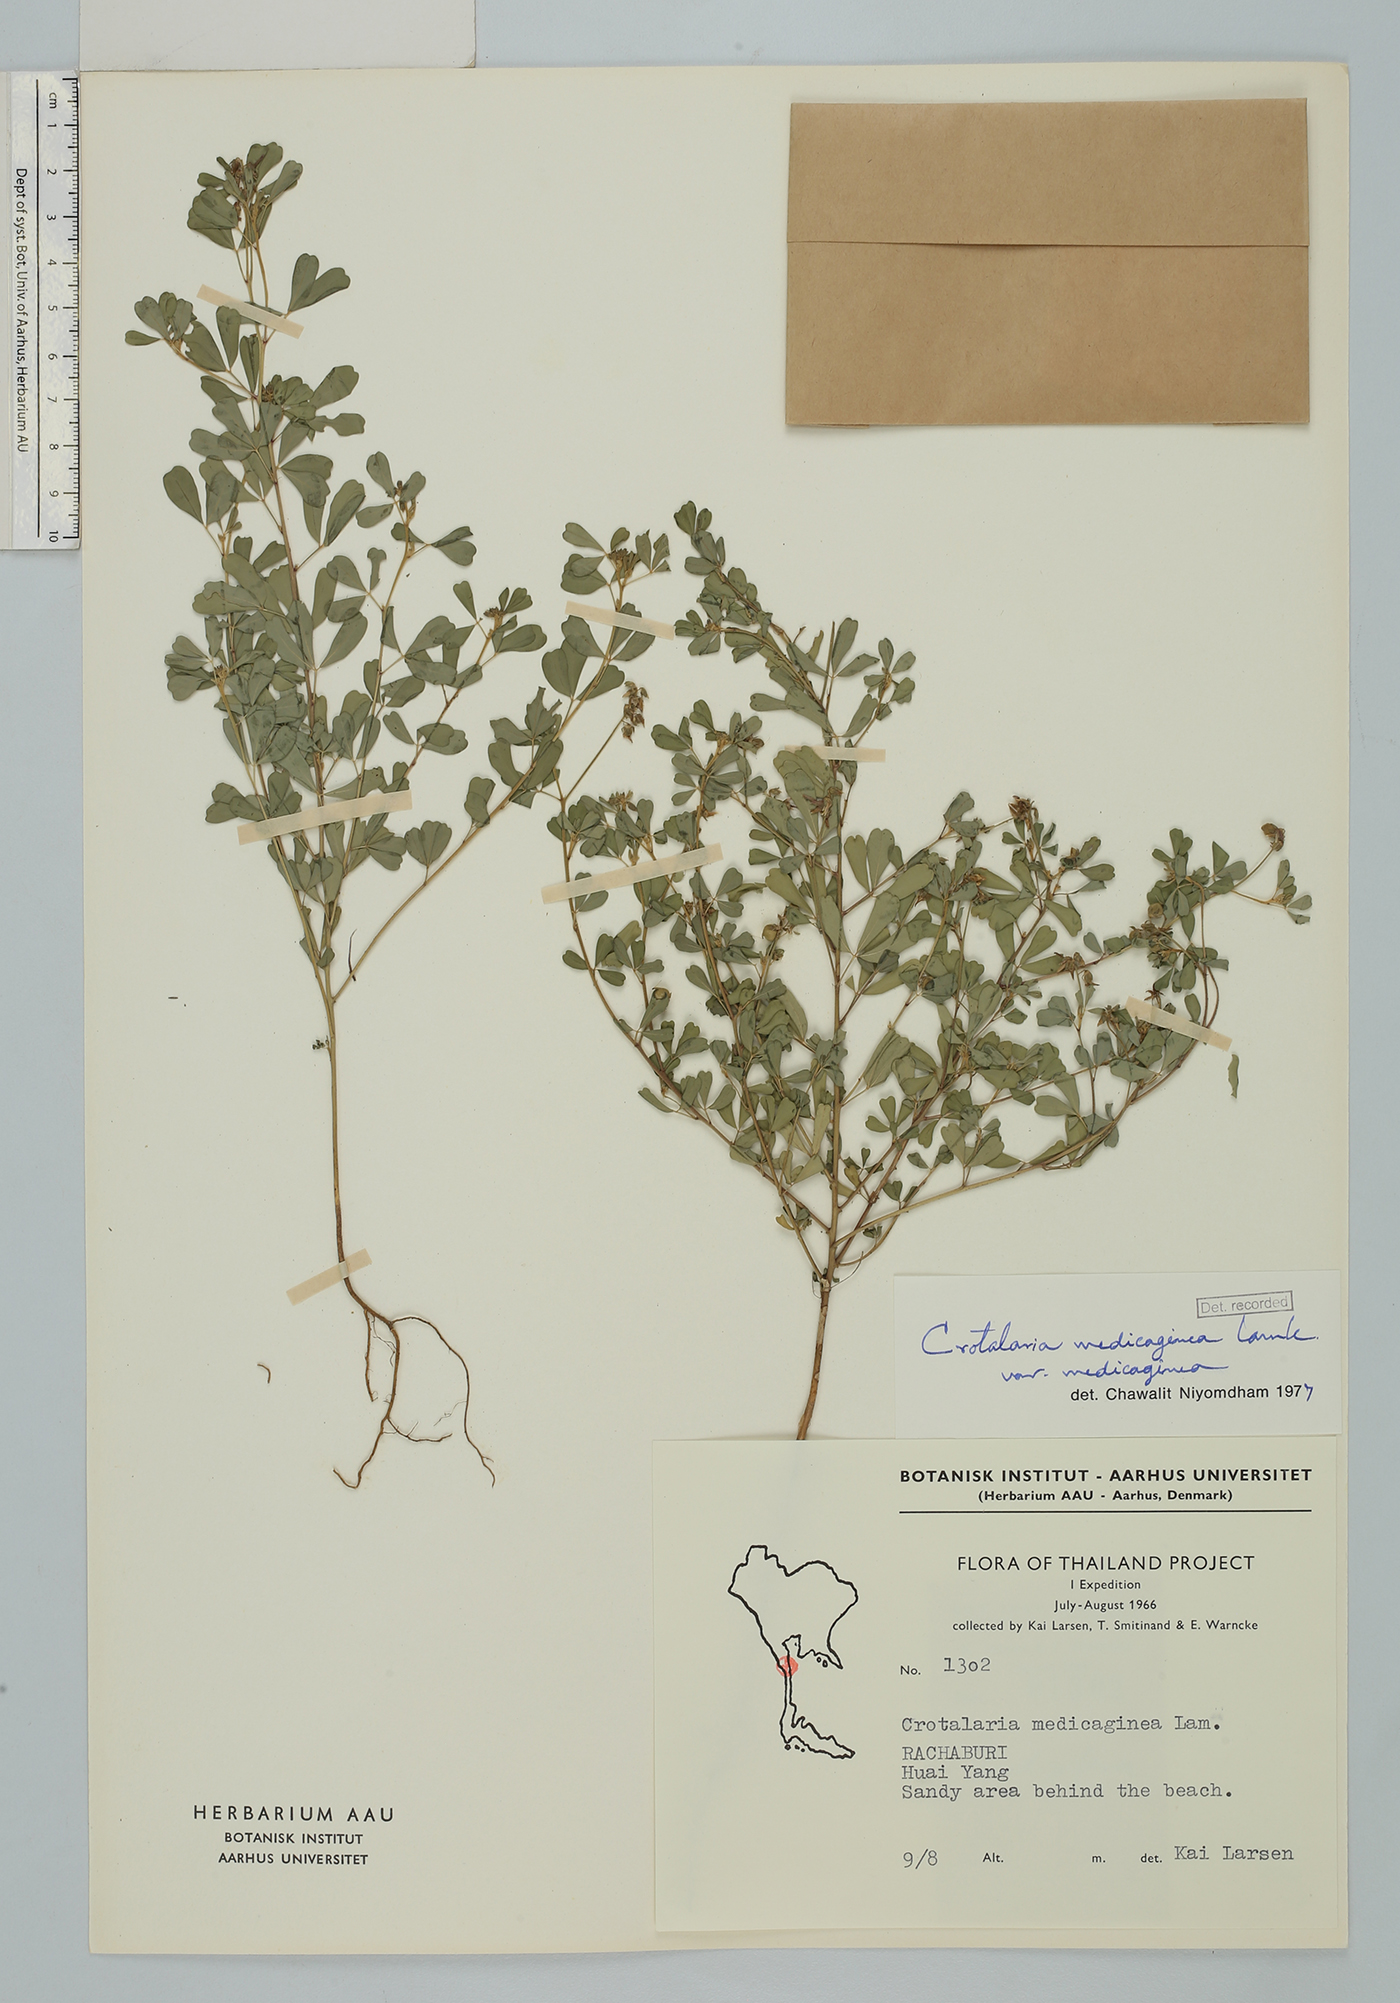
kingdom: Plantae
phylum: Tracheophyta
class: Magnoliopsida
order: Fabales
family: Fabaceae
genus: Crotalaria
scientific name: Crotalaria medicaginea
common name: Trefoil rattlepod
